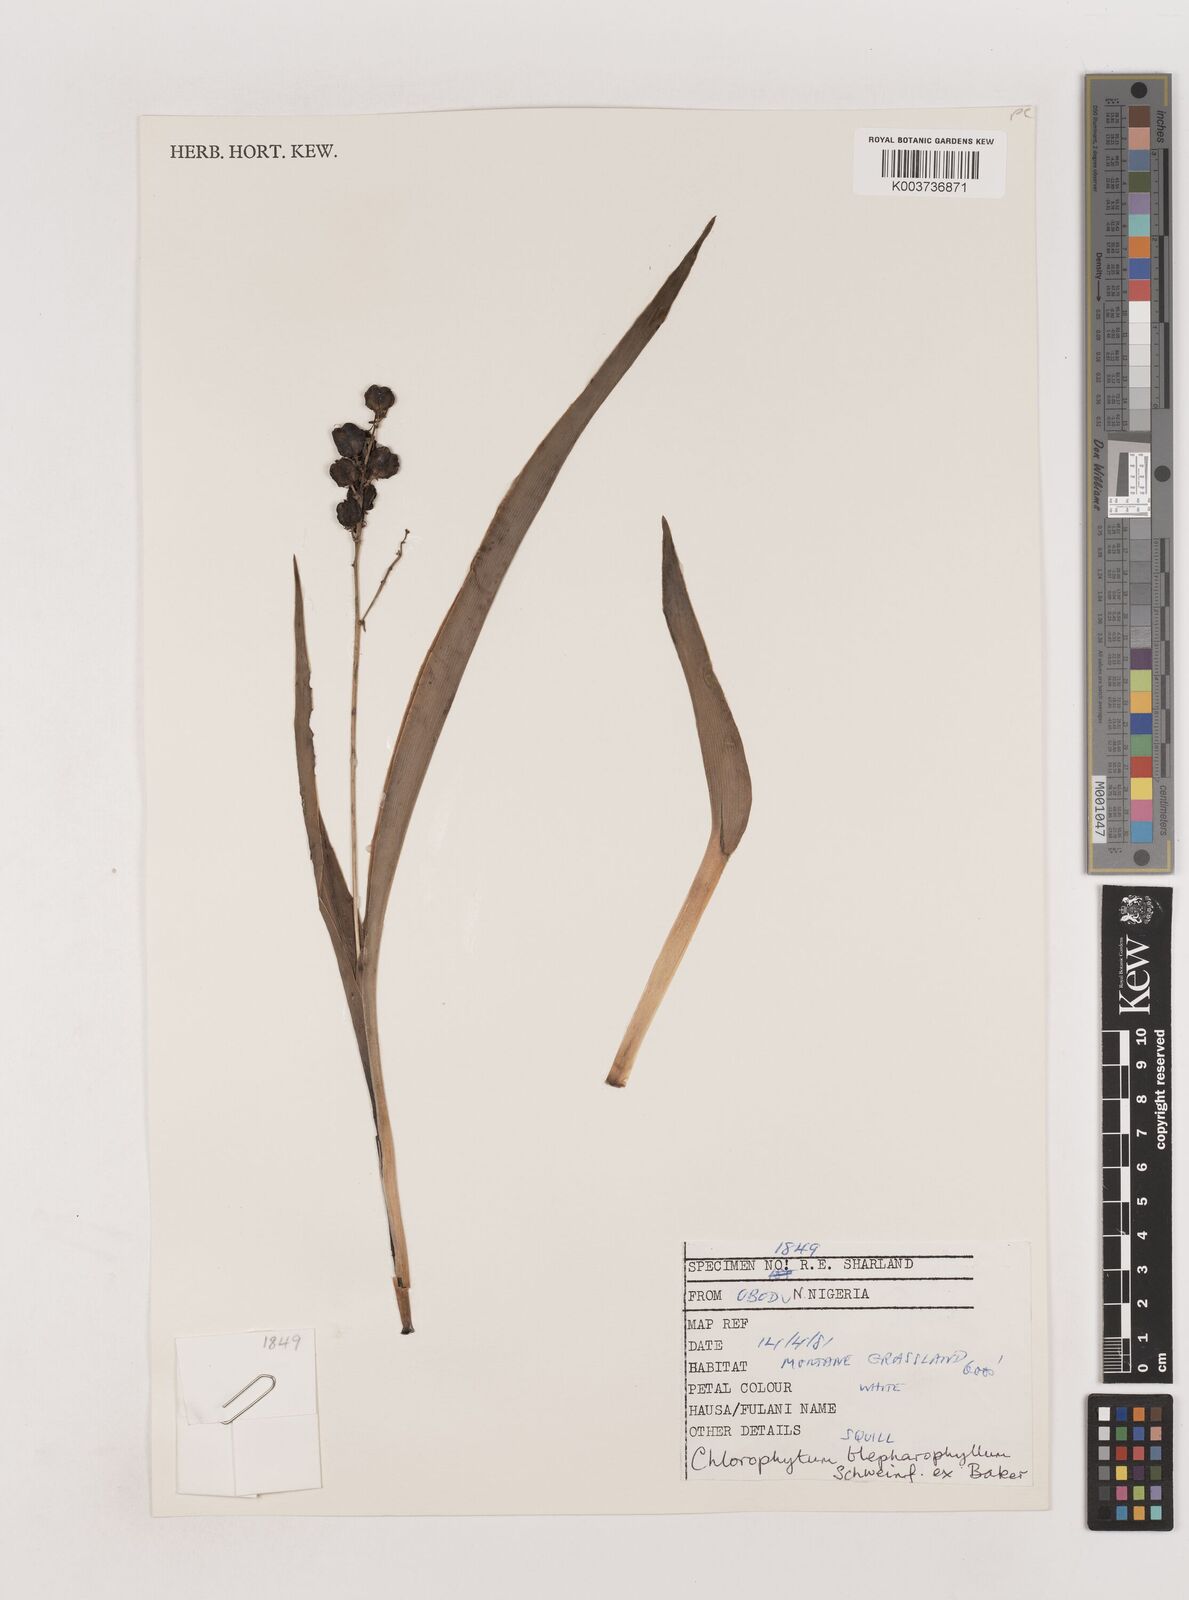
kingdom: Plantae
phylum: Tracheophyta
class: Liliopsida
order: Asparagales
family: Asparagaceae
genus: Chlorophytum
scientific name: Chlorophytum blepharophyllum
